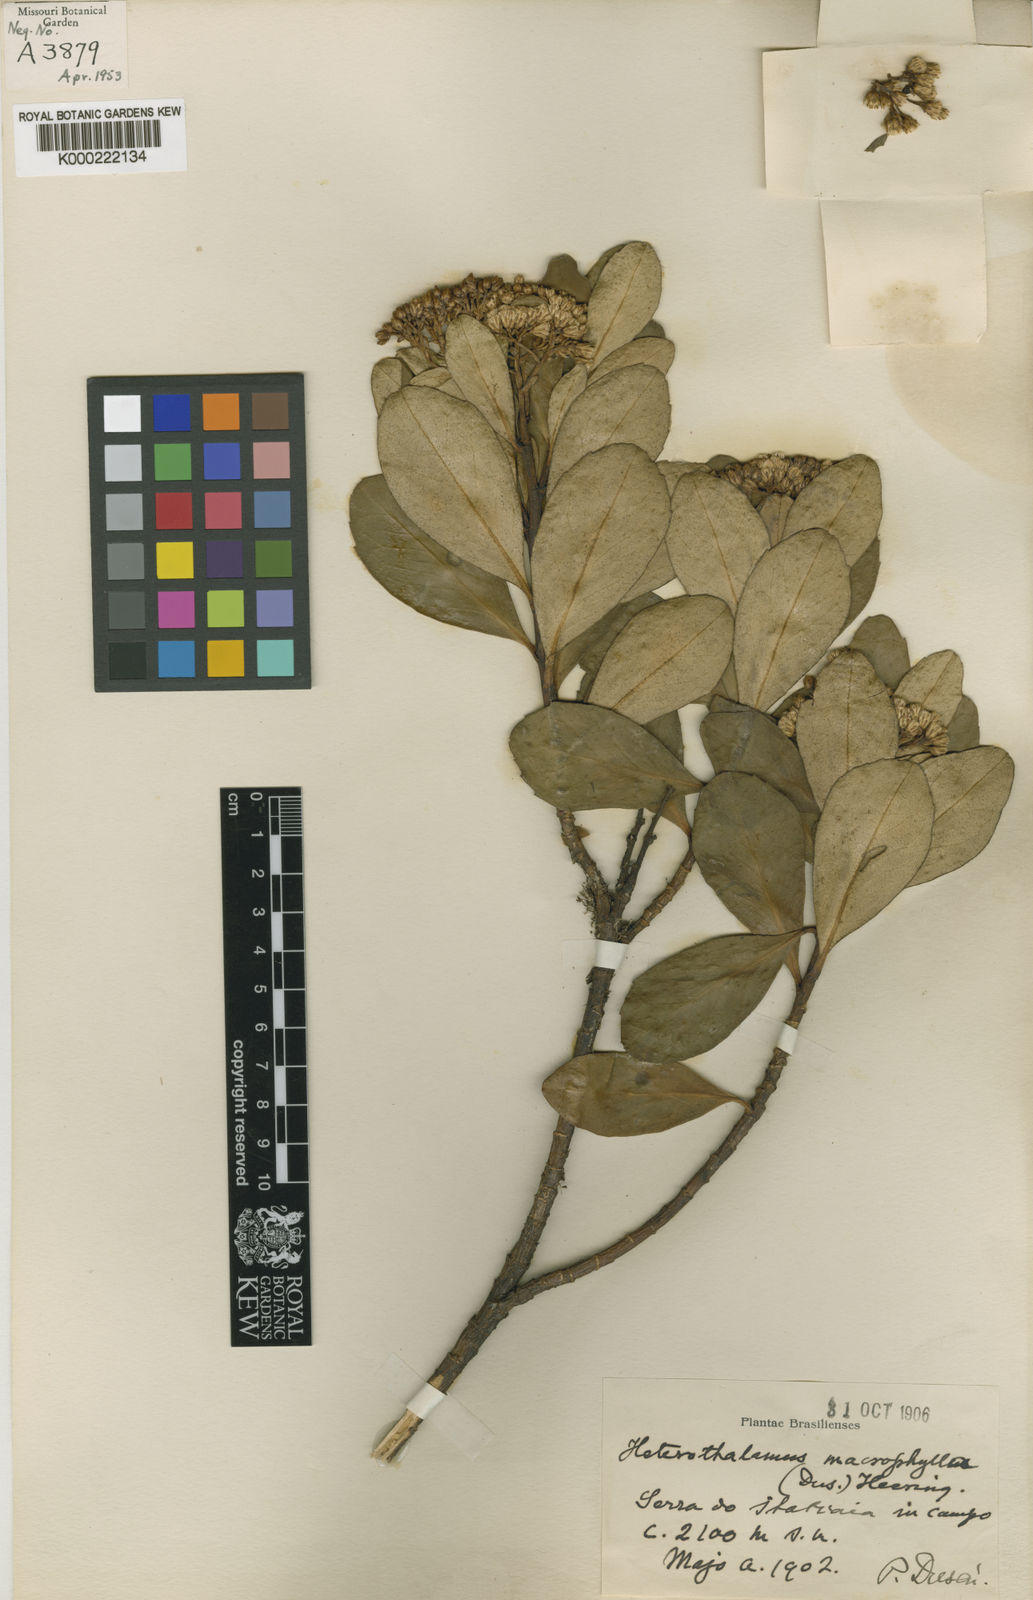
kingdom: Plantae
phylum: Tracheophyta
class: Magnoliopsida
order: Asterales
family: Asteraceae
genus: Pseudobaccharis
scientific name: Pseudobaccharis macrophylla
